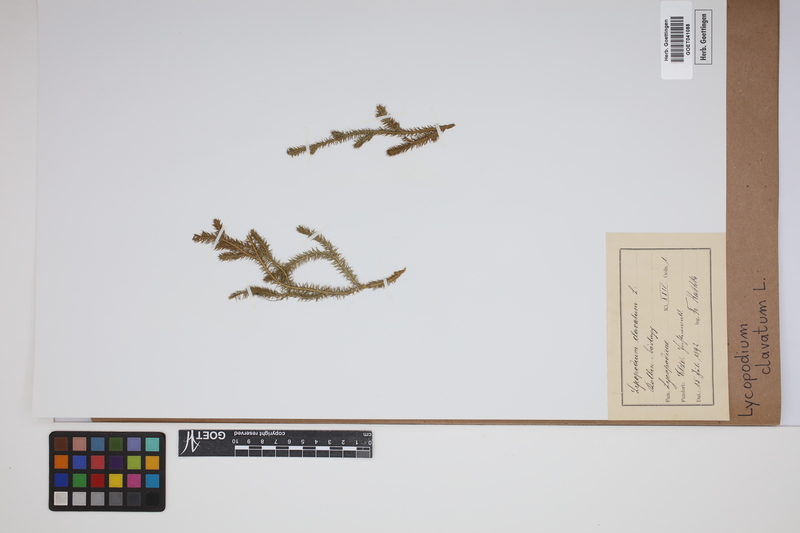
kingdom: Plantae
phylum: Tracheophyta
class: Lycopodiopsida
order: Lycopodiales
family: Lycopodiaceae
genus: Lycopodium
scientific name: Lycopodium clavatum
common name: Stag's-horn clubmoss
